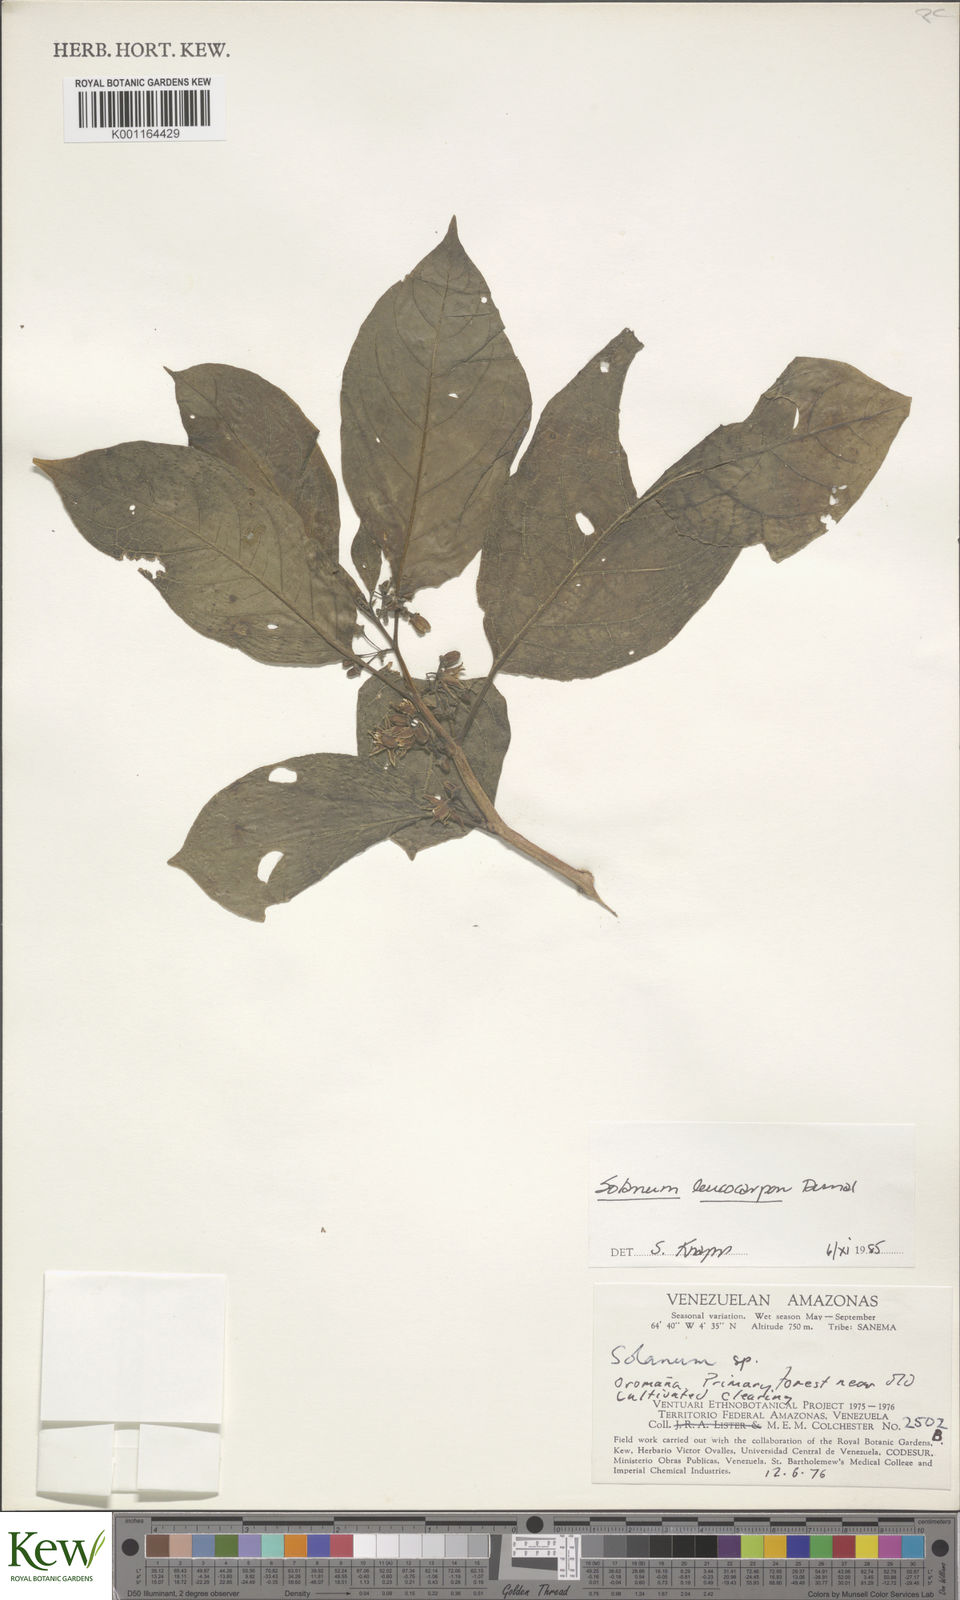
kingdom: Plantae
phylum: Tracheophyta
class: Magnoliopsida
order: Solanales
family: Solanaceae
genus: Solanum
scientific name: Solanum leucocarpon
